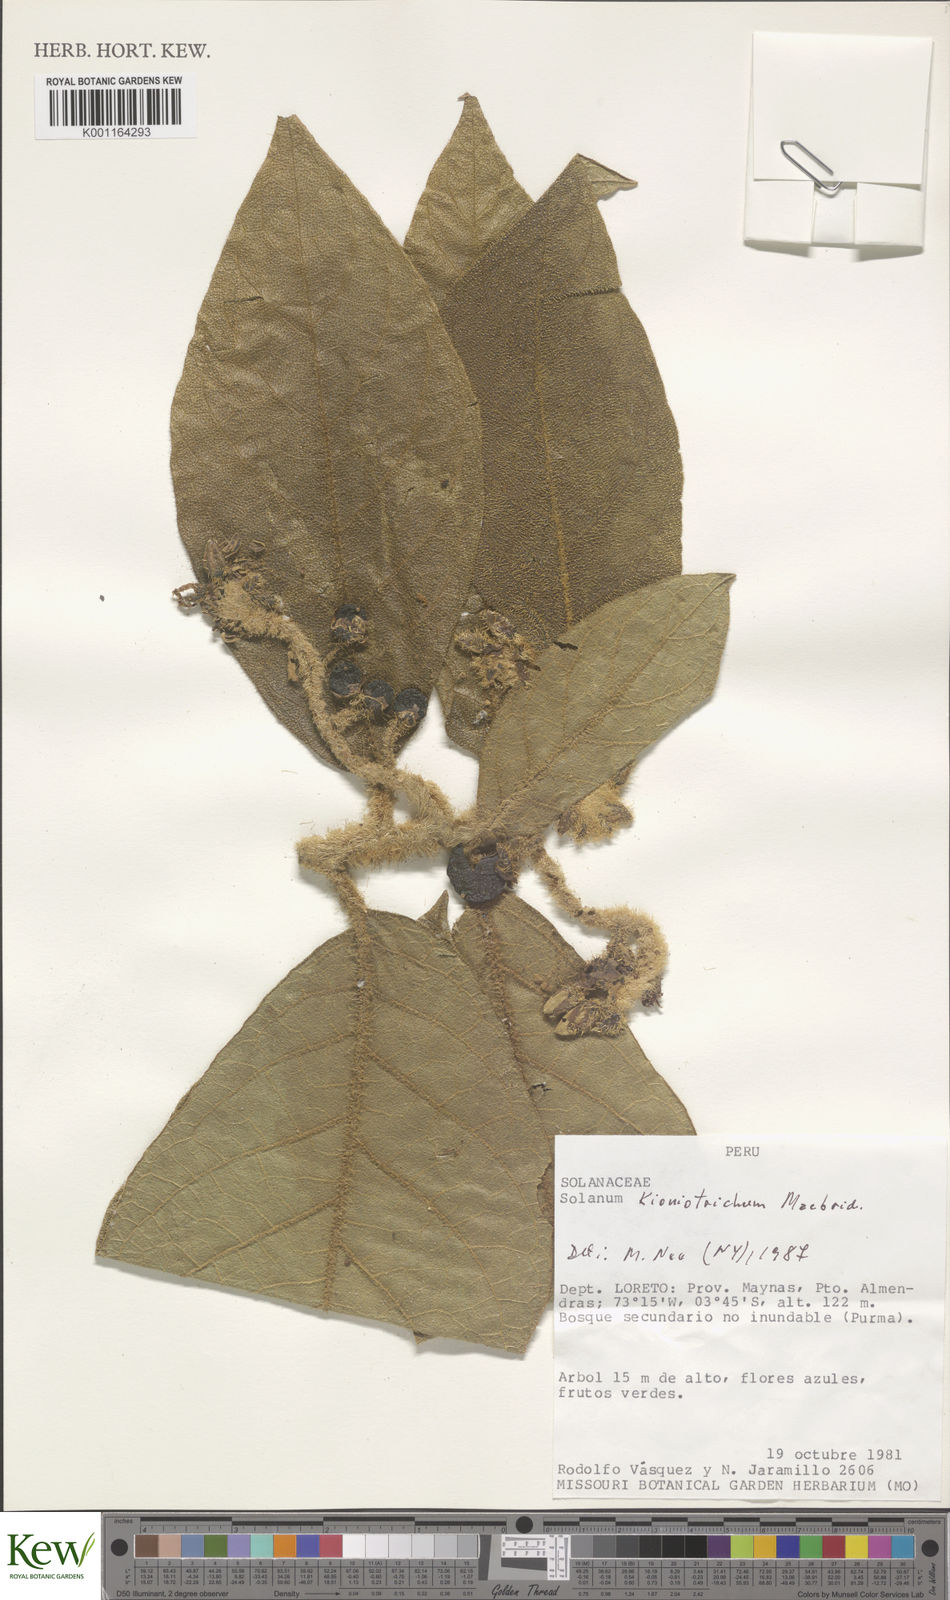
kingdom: Plantae
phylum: Tracheophyta
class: Magnoliopsida
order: Solanales
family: Solanaceae
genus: Solanum
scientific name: Solanum kioniotrichum
